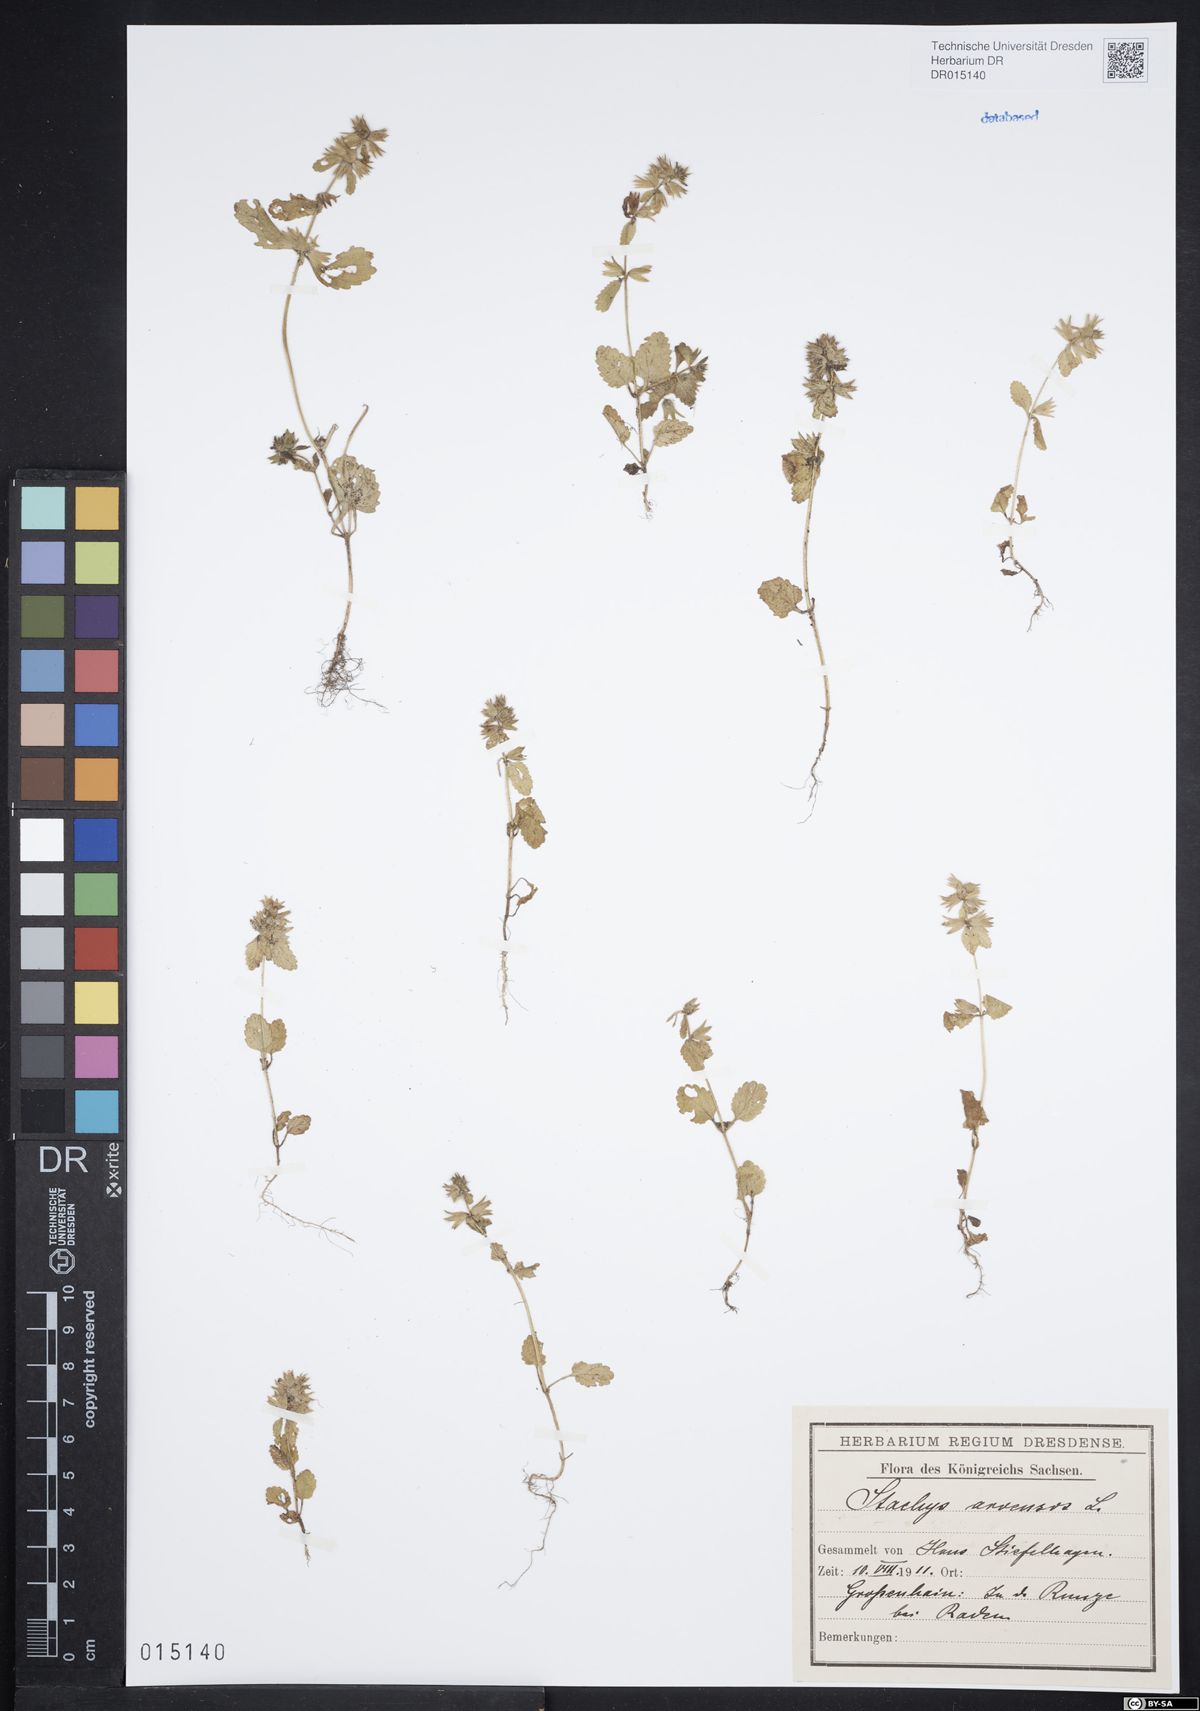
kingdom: Plantae
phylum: Tracheophyta
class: Magnoliopsida
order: Lamiales
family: Lamiaceae
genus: Stachys
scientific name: Stachys arvensis
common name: Field woundwort
